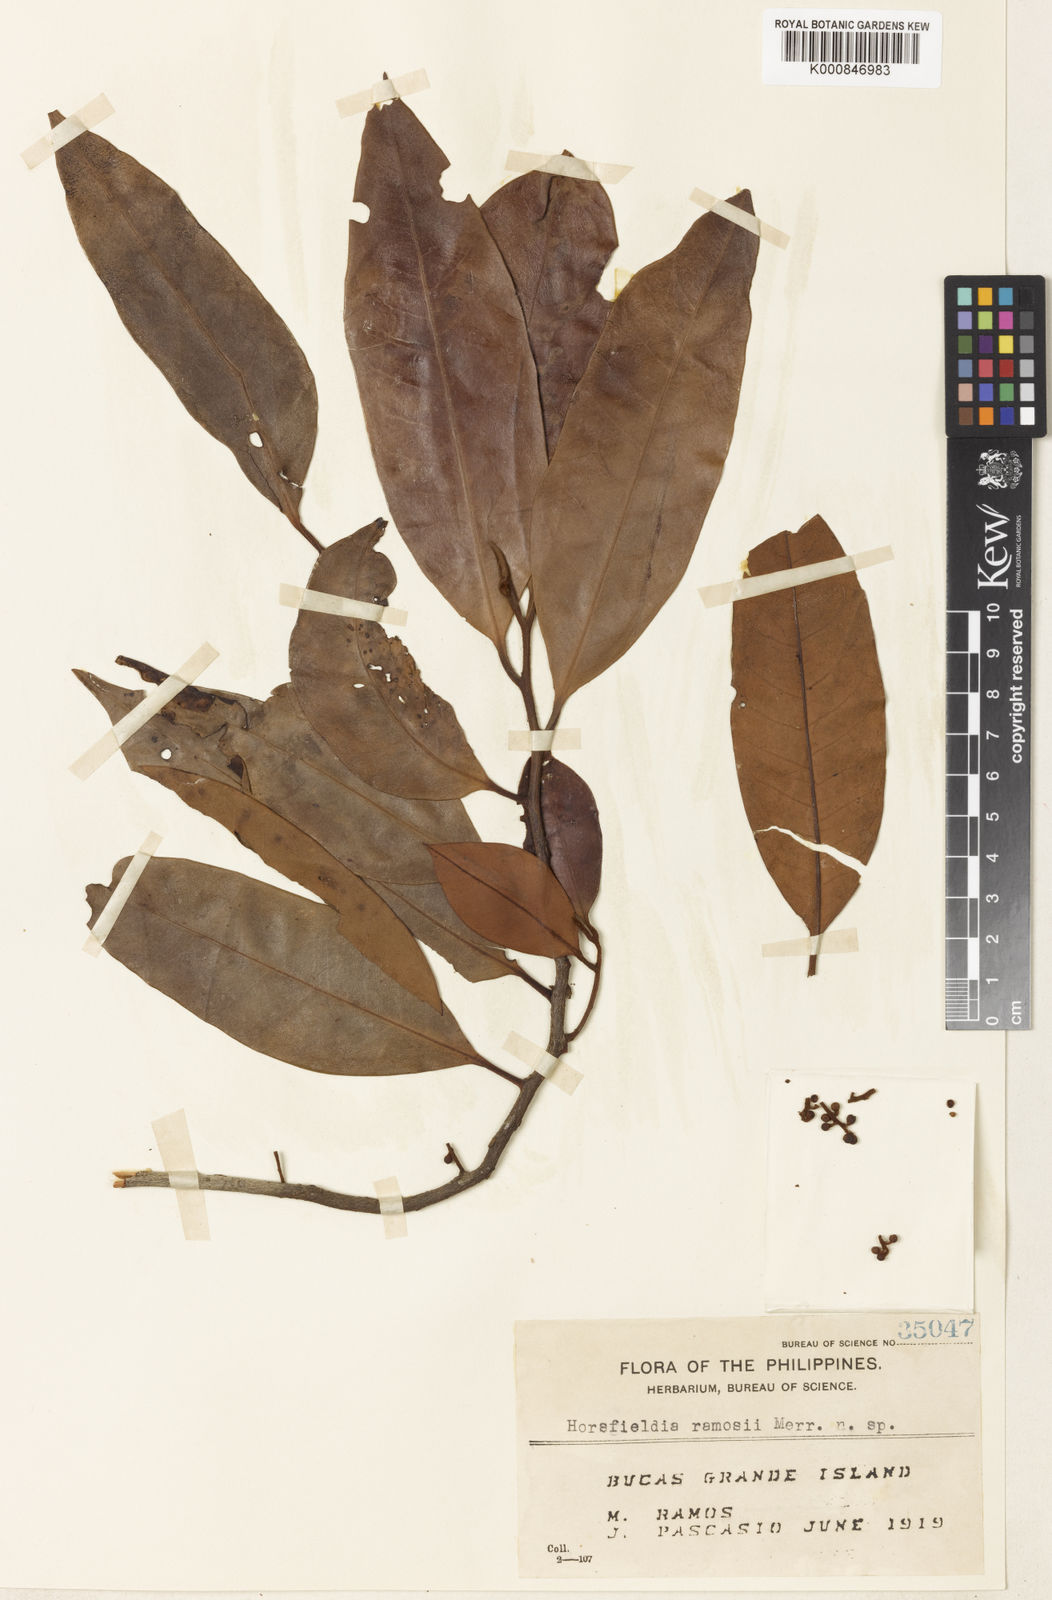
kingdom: Plantae
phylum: Tracheophyta
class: Magnoliopsida
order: Magnoliales
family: Myristicaceae
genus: Horsfieldia
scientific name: Horsfieldia obscurinervia
